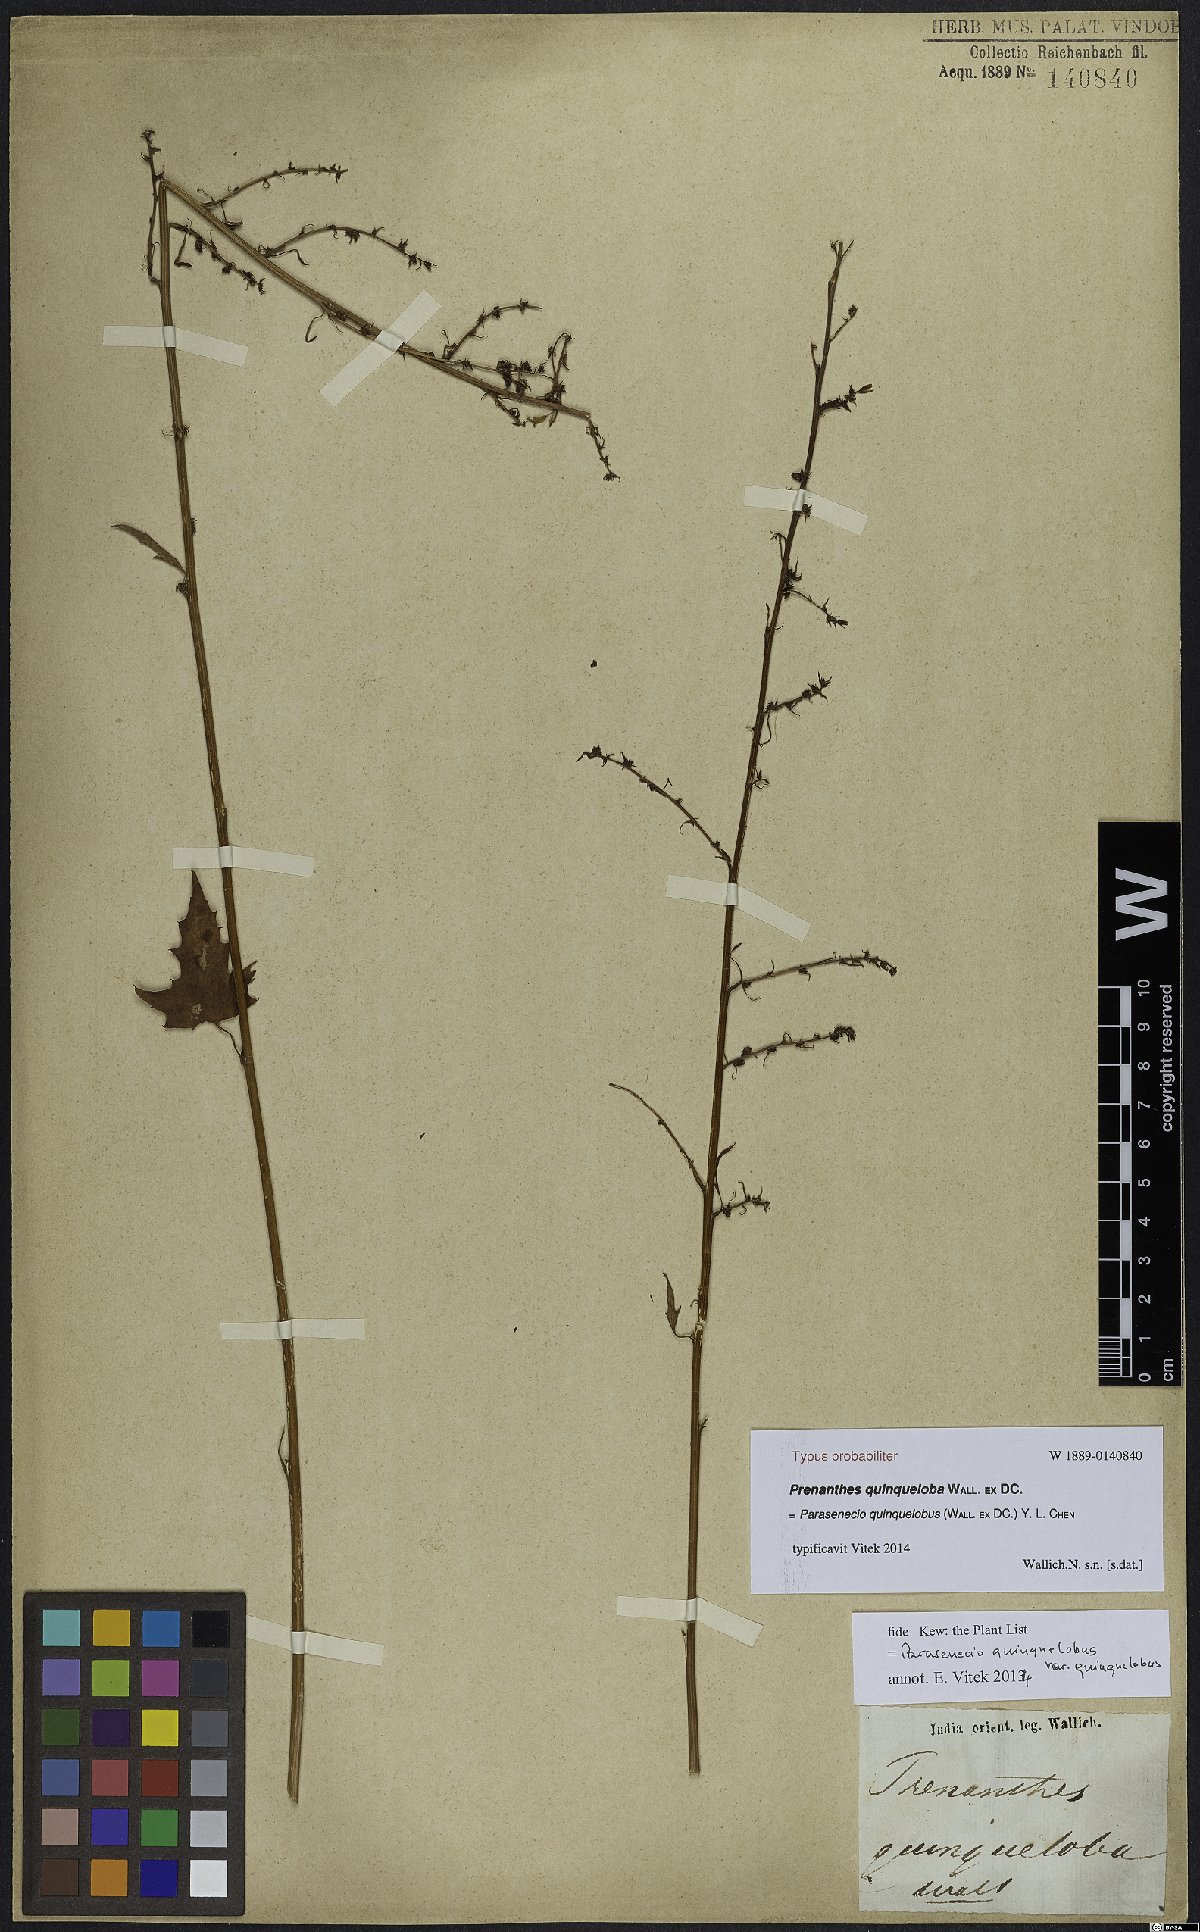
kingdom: Plantae
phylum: Tracheophyta
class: Magnoliopsida
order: Asterales
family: Asteraceae
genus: Parasenecio
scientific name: Parasenecio quinquelobus
